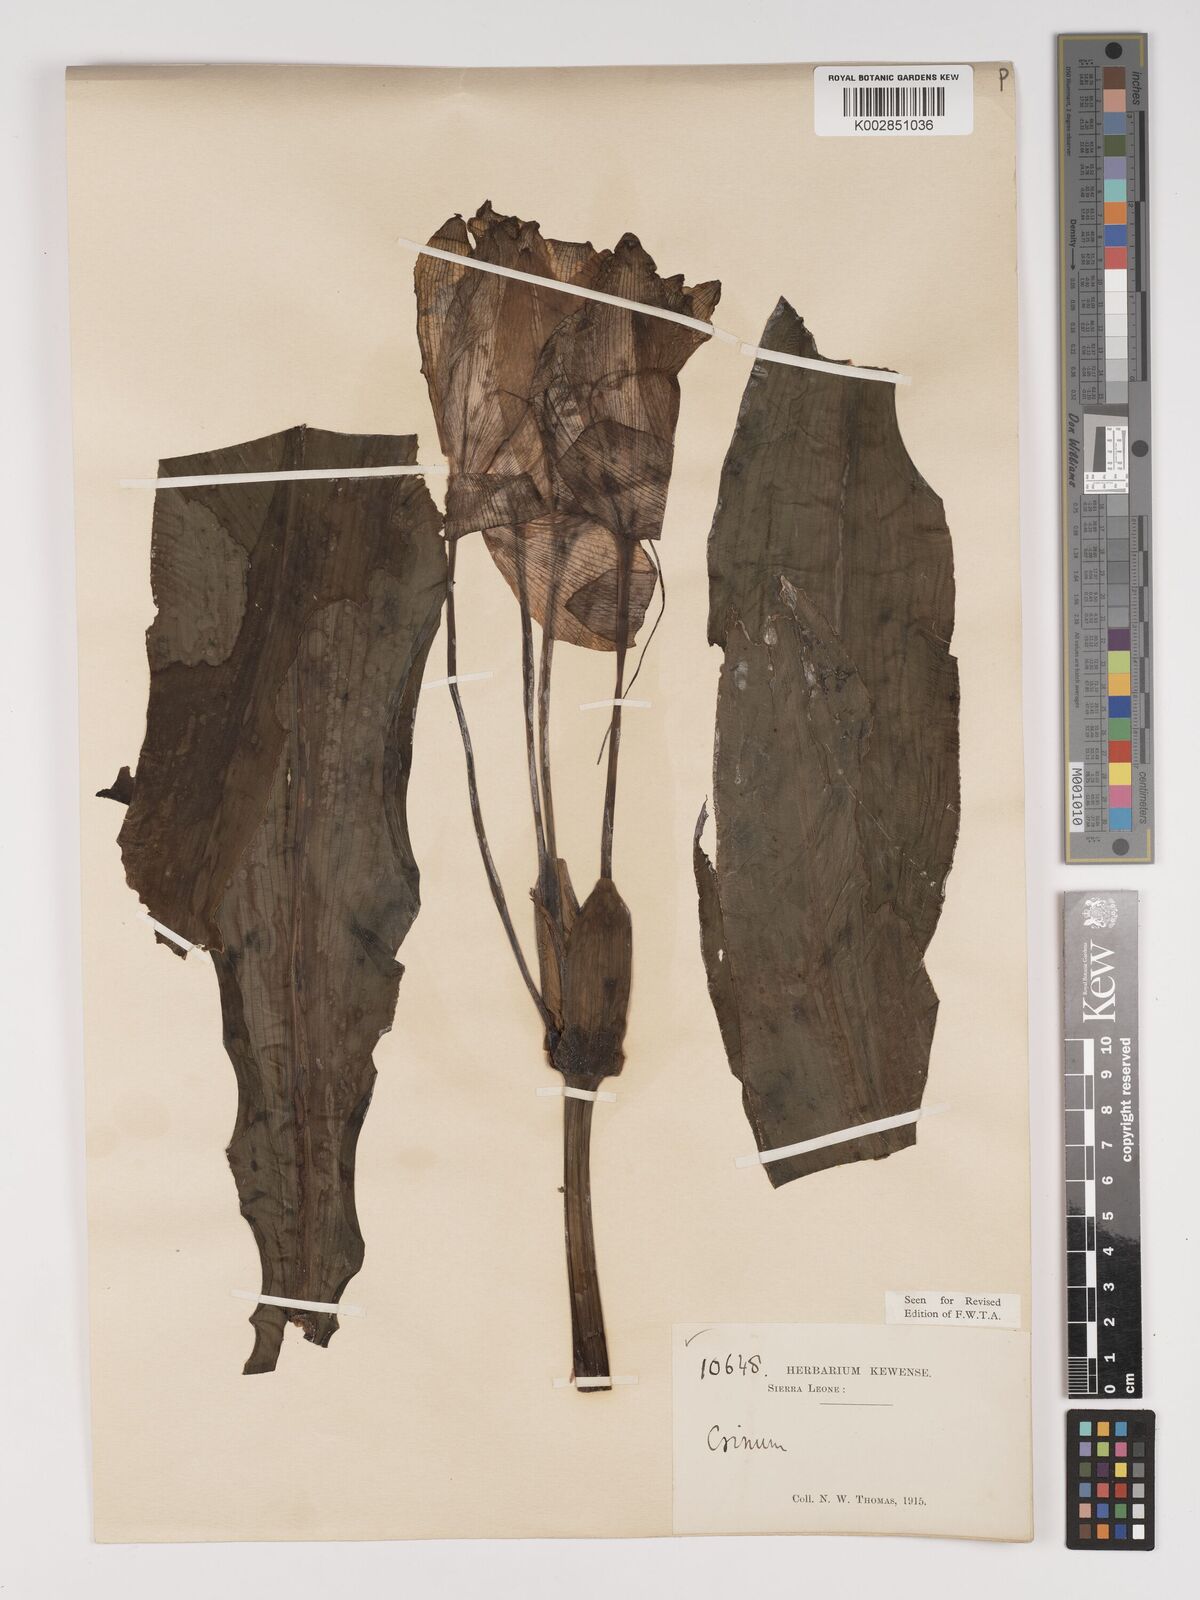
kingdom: Plantae
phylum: Tracheophyta
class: Liliopsida
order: Asparagales
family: Amaryllidaceae
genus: Crinum
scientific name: Crinum jagus
